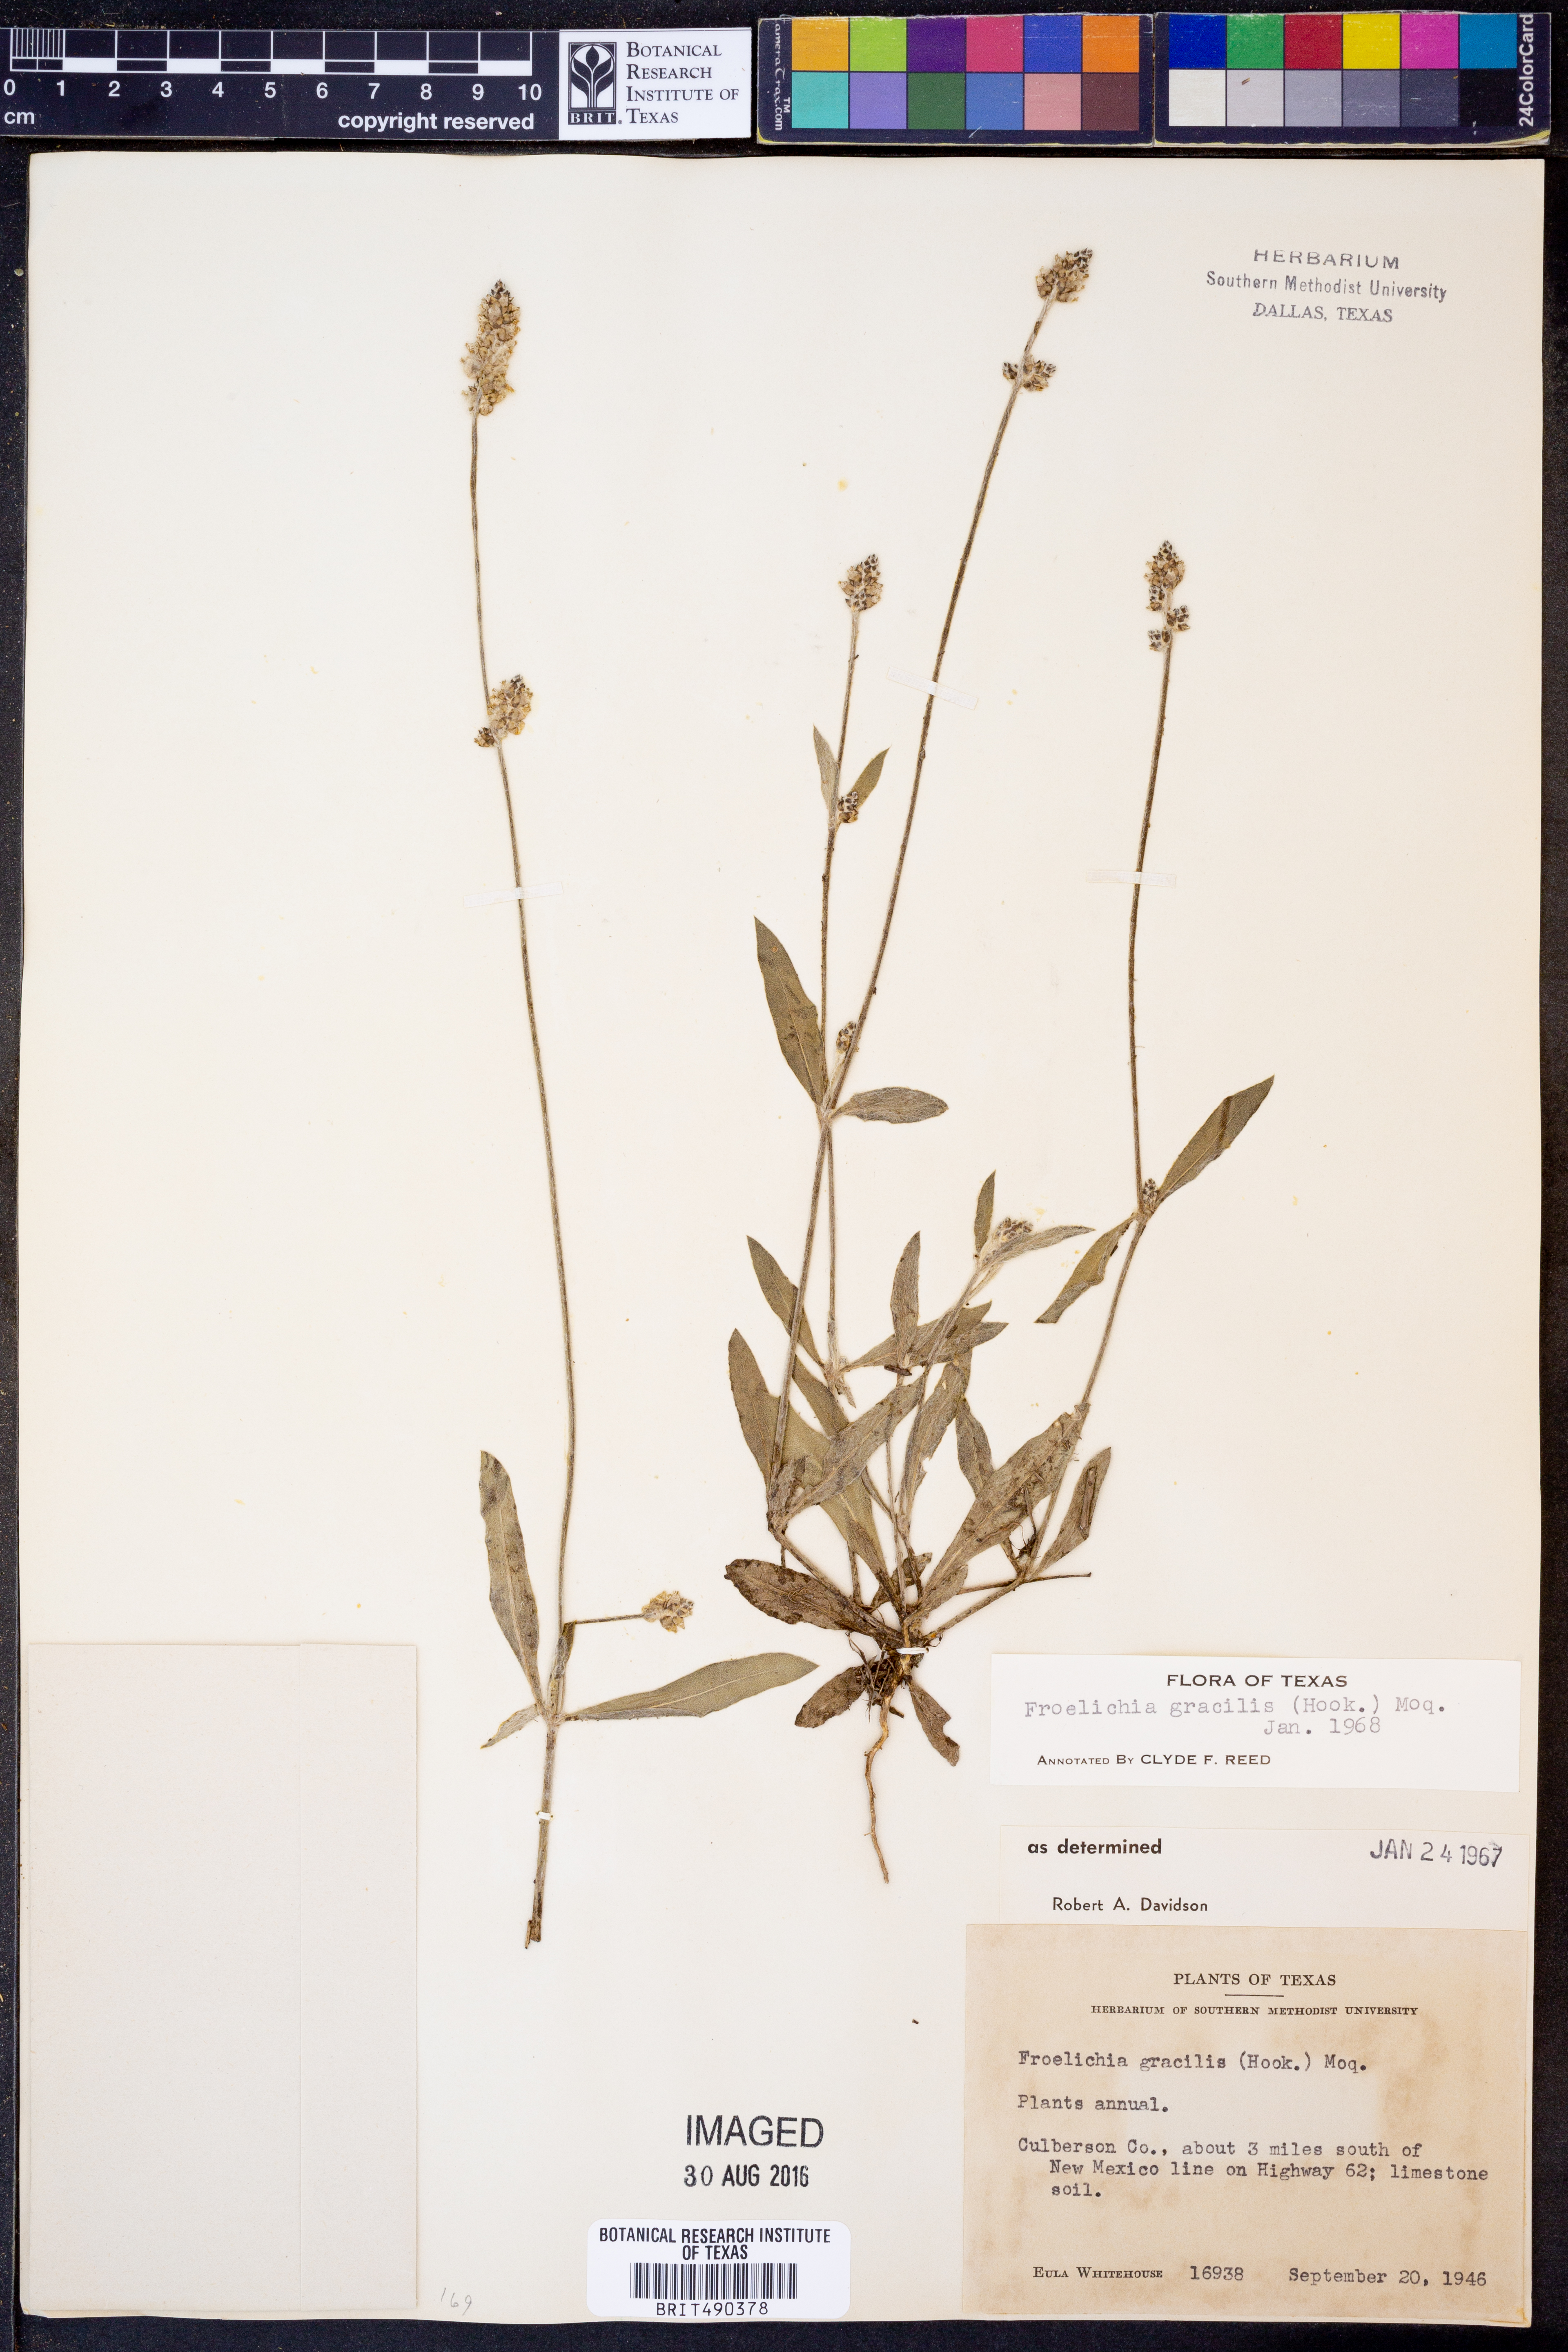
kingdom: Plantae
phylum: Tracheophyta
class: Magnoliopsida
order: Caryophyllales
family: Amaranthaceae
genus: Froelichia
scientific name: Froelichia gracilis
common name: Slender cottonweed
